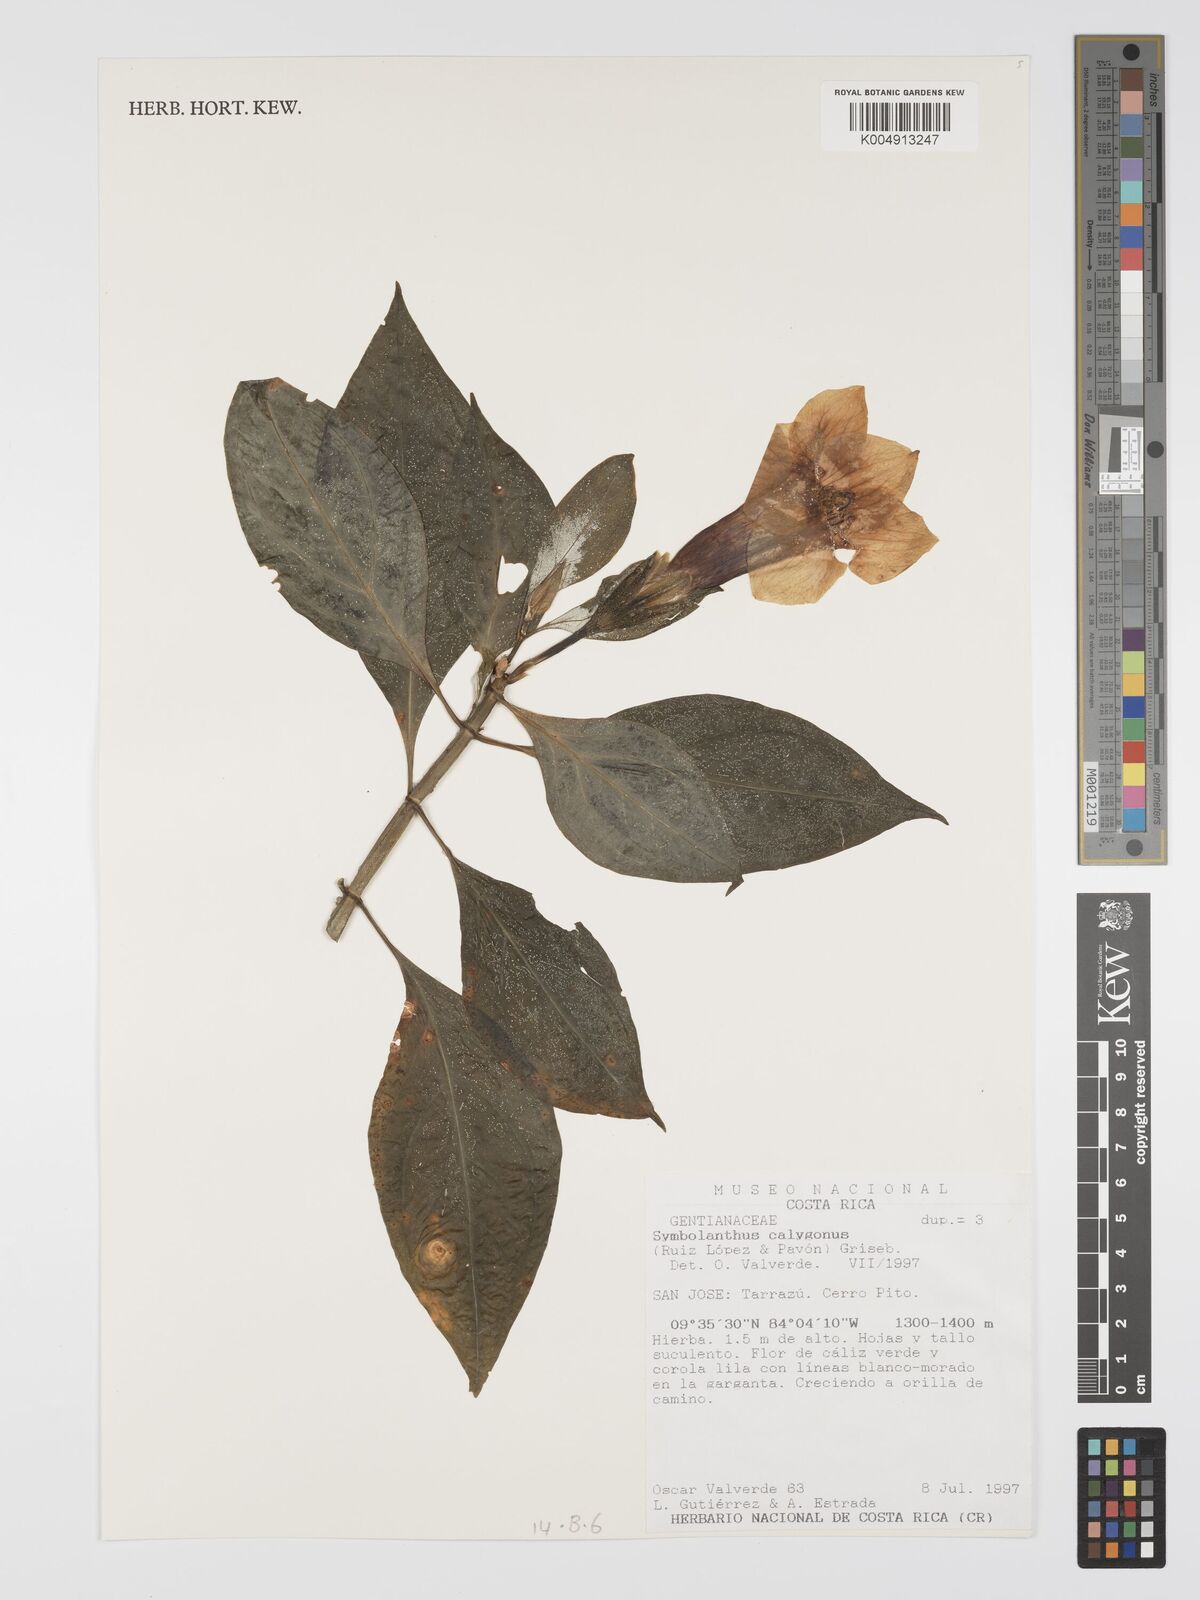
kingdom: Plantae
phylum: Tracheophyta
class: Magnoliopsida
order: Gentianales
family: Gentianaceae
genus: Symbolanthus
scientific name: Symbolanthus calygonus
